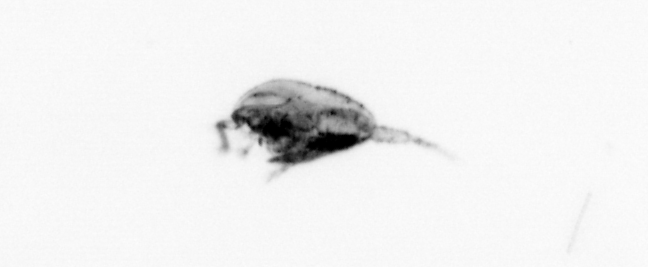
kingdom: Animalia
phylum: Arthropoda
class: Copepoda
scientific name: Copepoda
